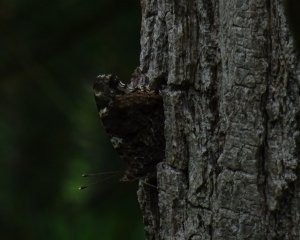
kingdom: Animalia
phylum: Arthropoda
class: Insecta
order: Lepidoptera
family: Nymphalidae
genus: Vanessa
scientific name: Vanessa atalanta
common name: Red Admiral
